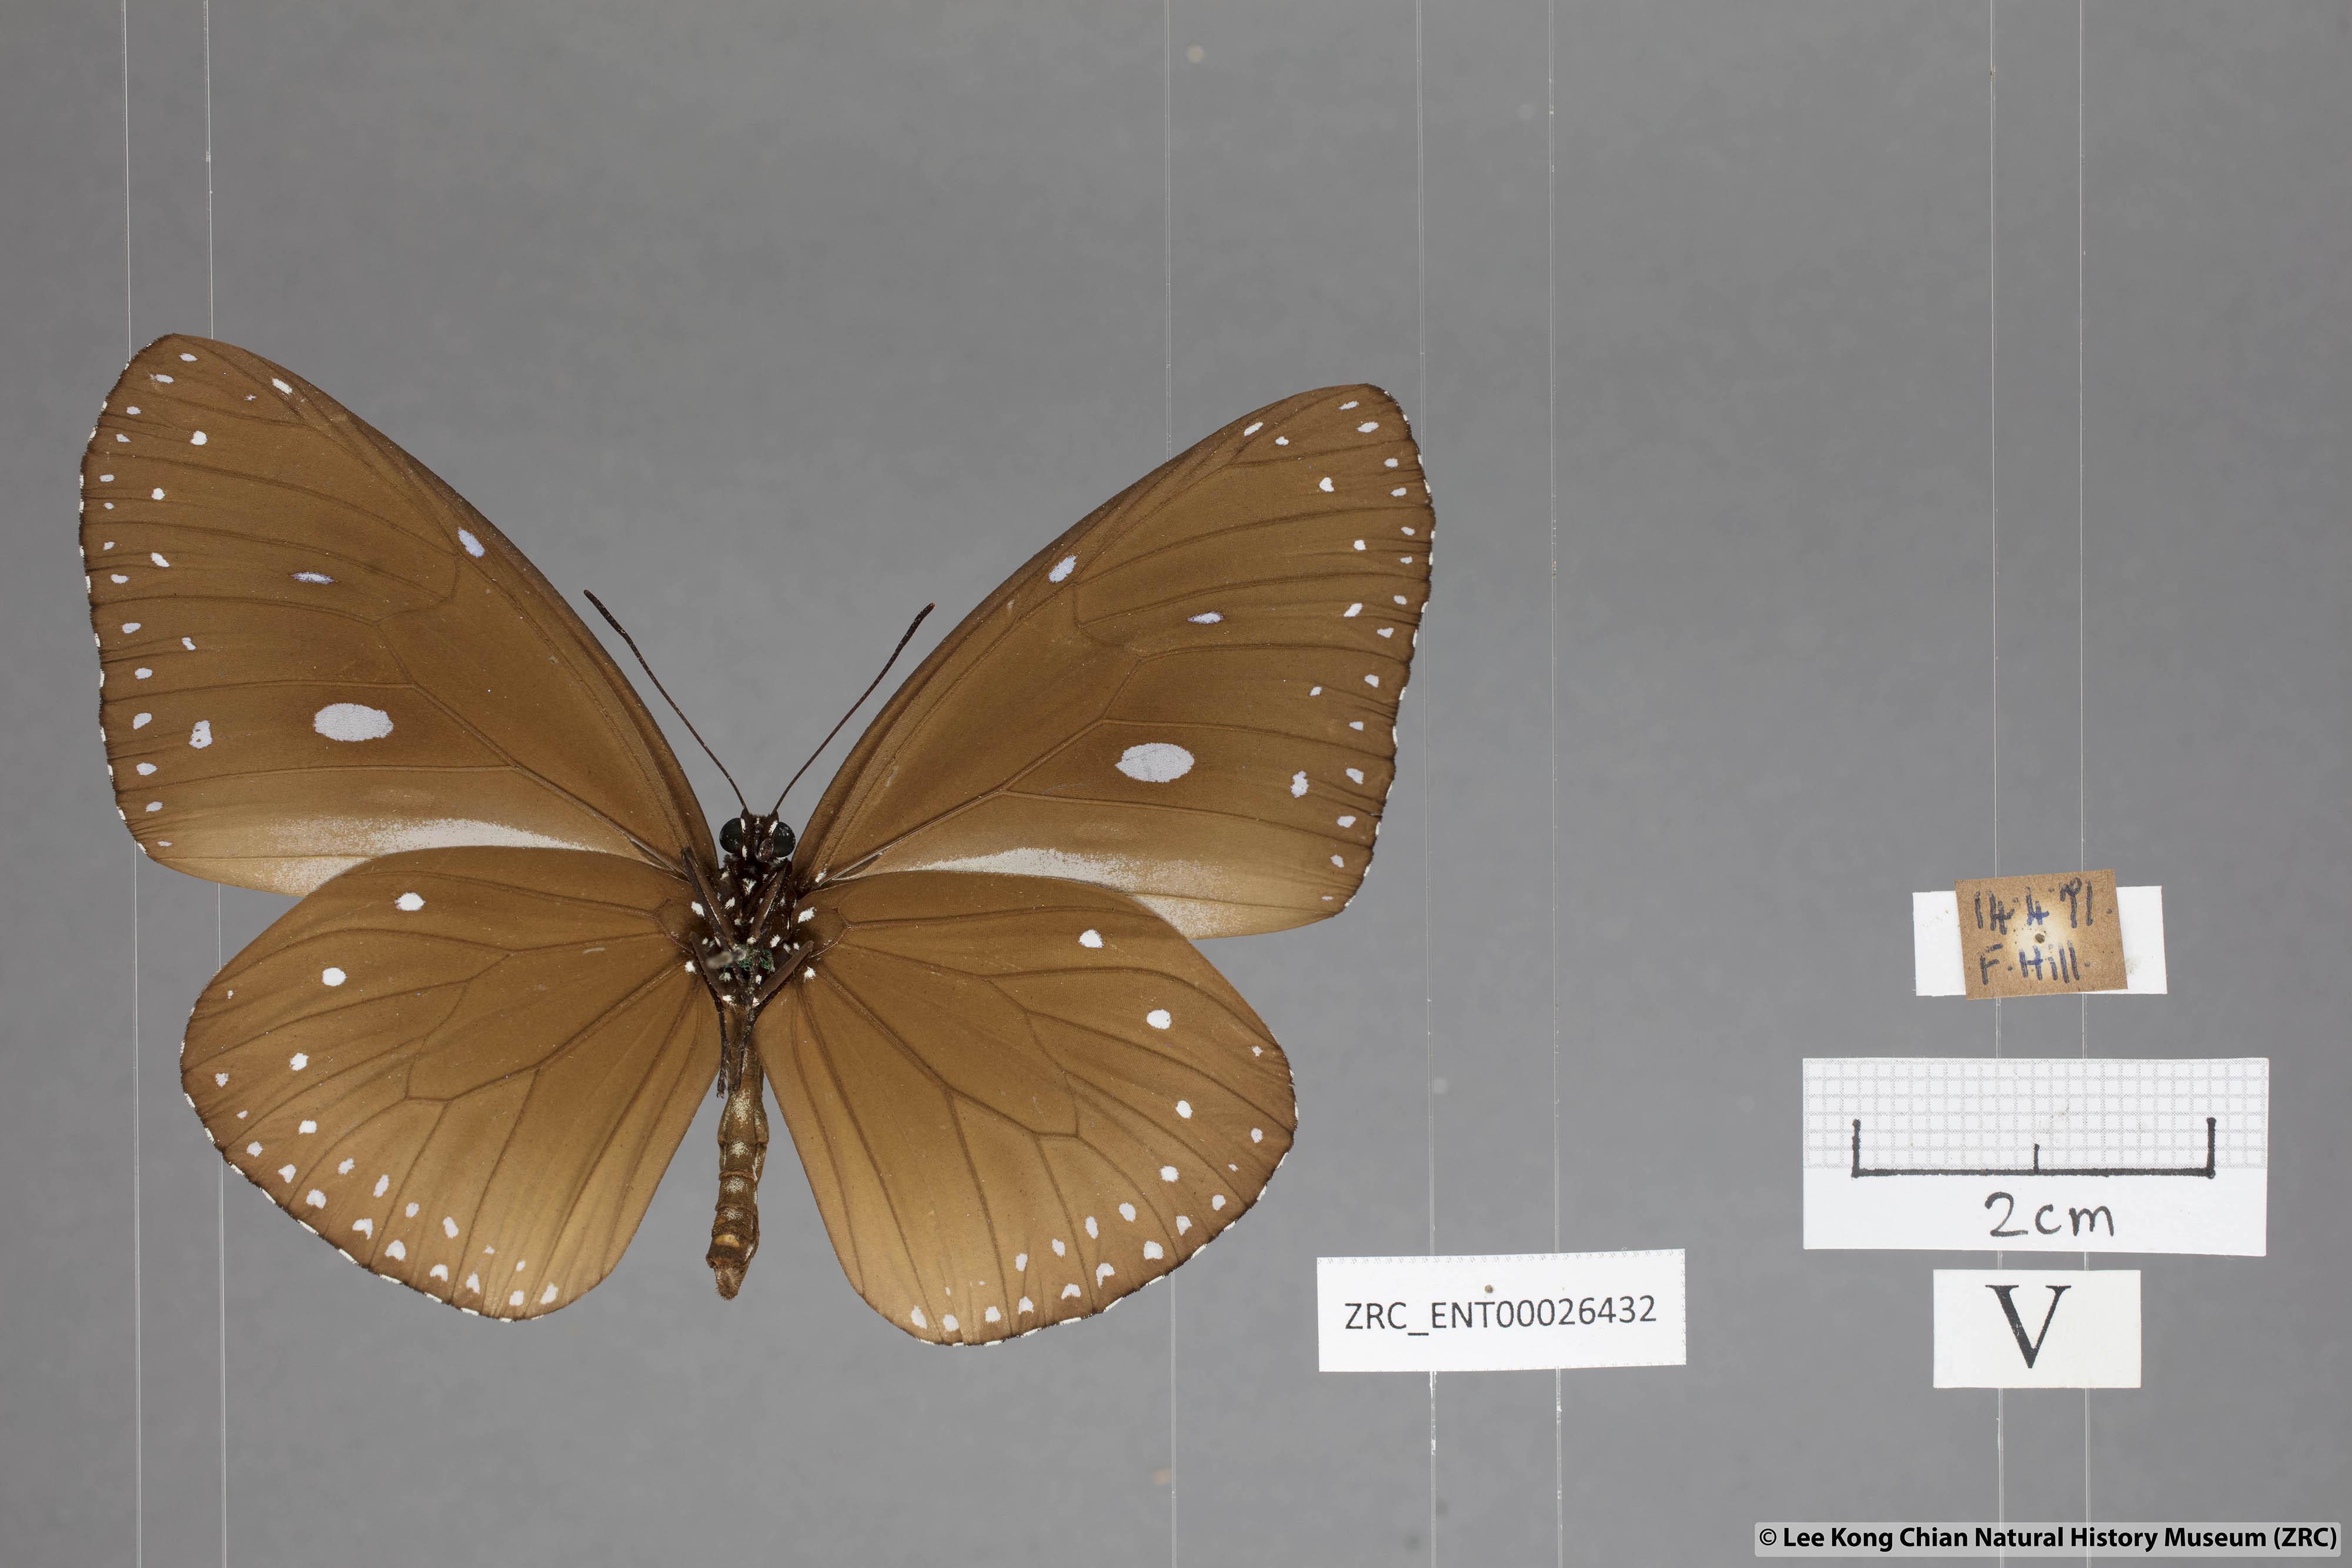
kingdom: Animalia
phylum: Arthropoda
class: Insecta
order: Lepidoptera
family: Nymphalidae
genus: Euploea
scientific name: Euploea eunice
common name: Blue-banded king crow butterfly
